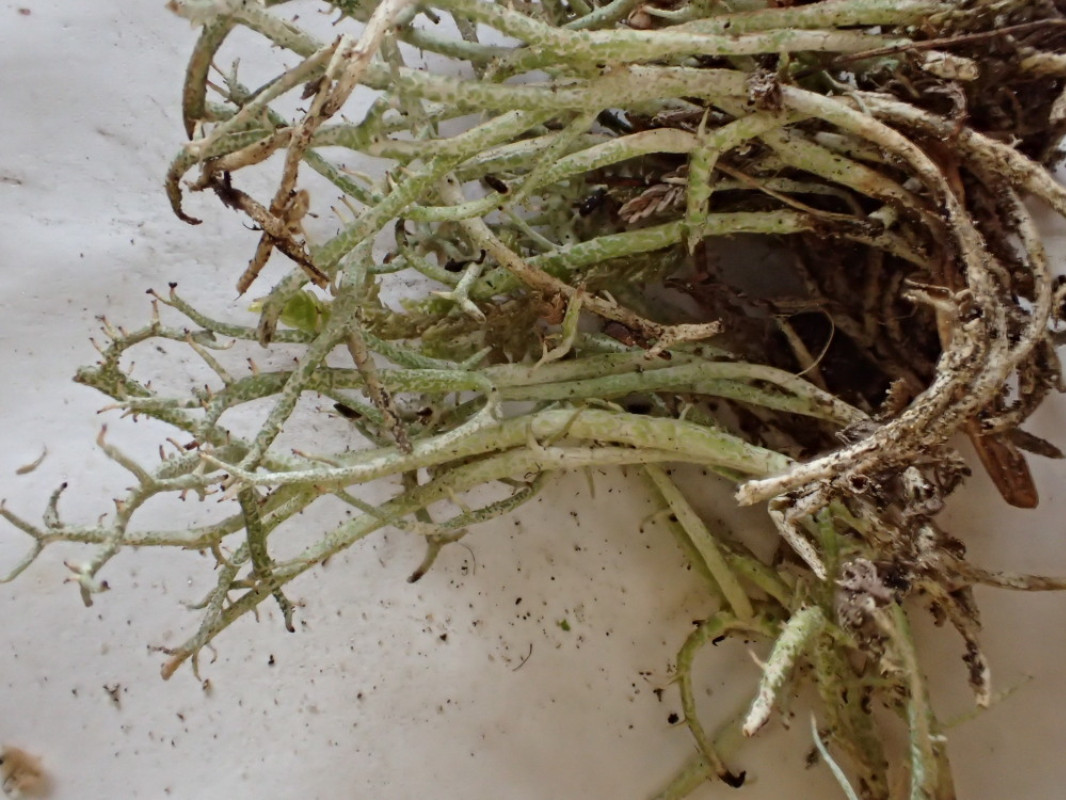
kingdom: Fungi
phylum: Ascomycota
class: Lecanoromycetes
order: Lecanorales
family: Cladoniaceae
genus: Cladonia
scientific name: Cladonia furcata
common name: kløftet bægerlav
